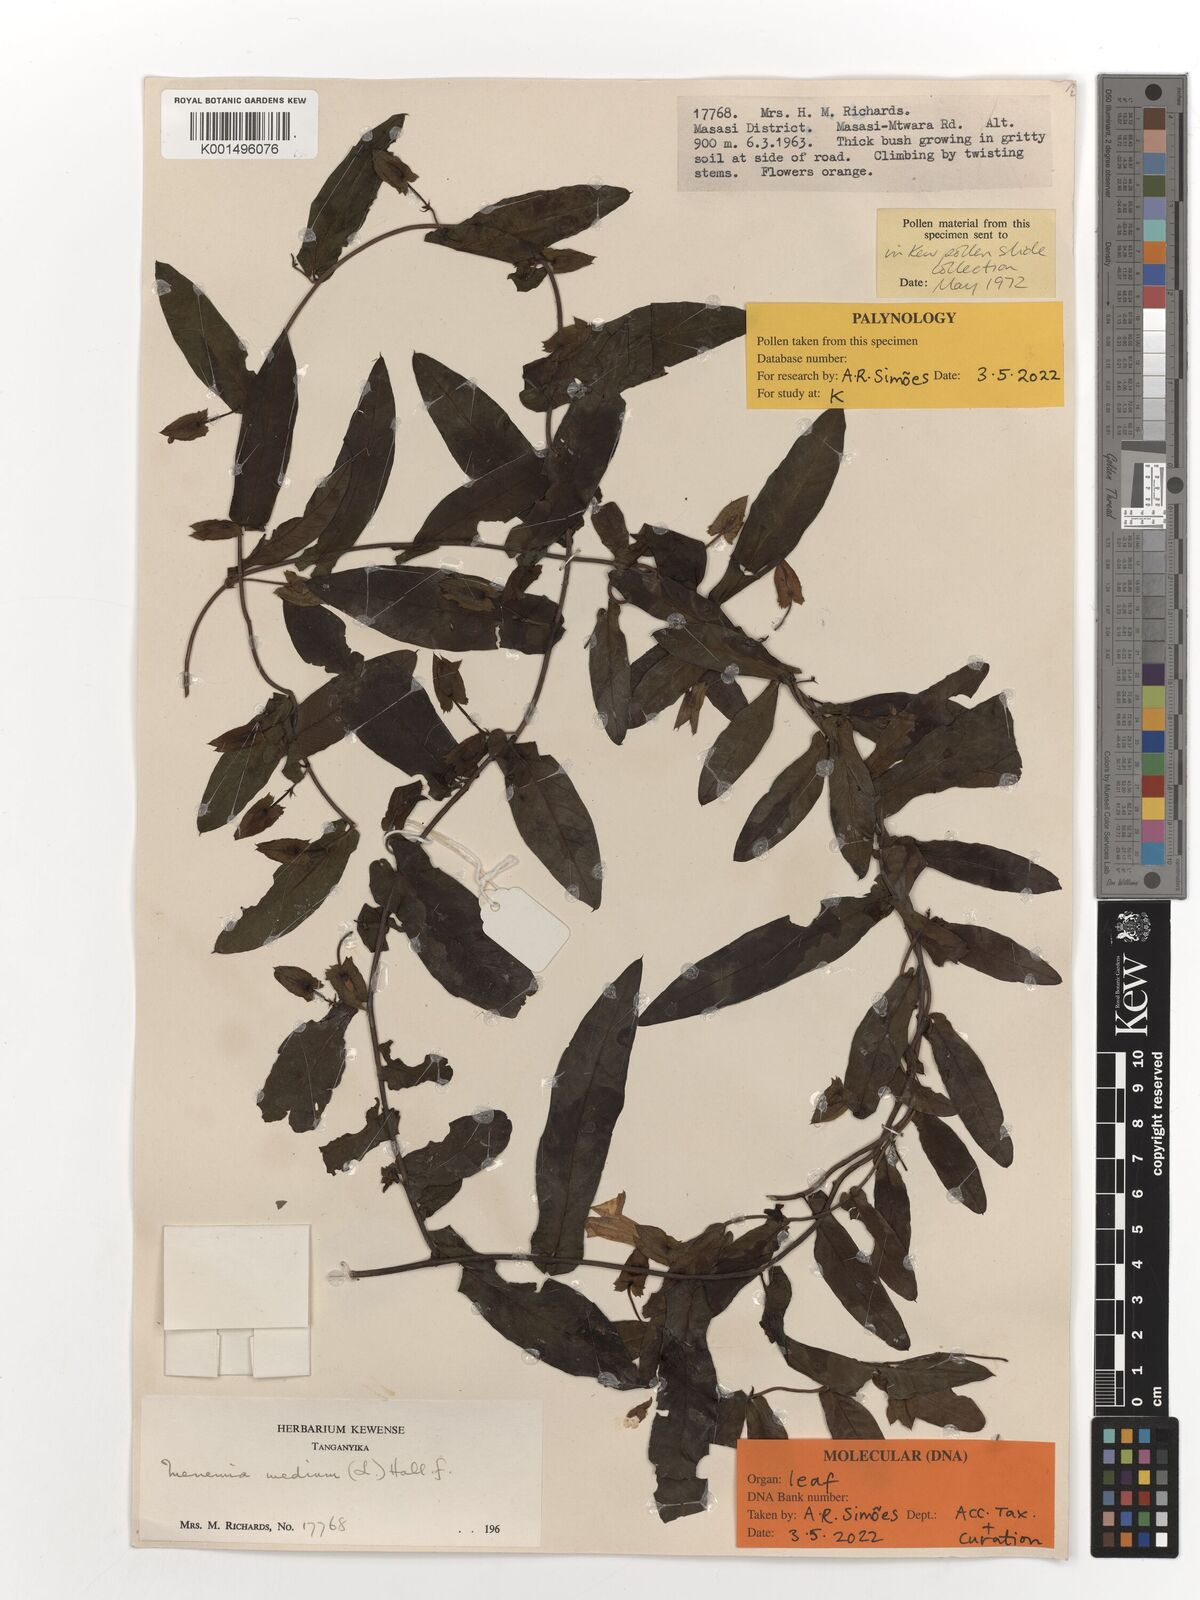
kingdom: Plantae
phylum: Tracheophyta
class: Magnoliopsida
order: Solanales
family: Convolvulaceae
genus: Xenostegia
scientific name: Xenostegia medium
